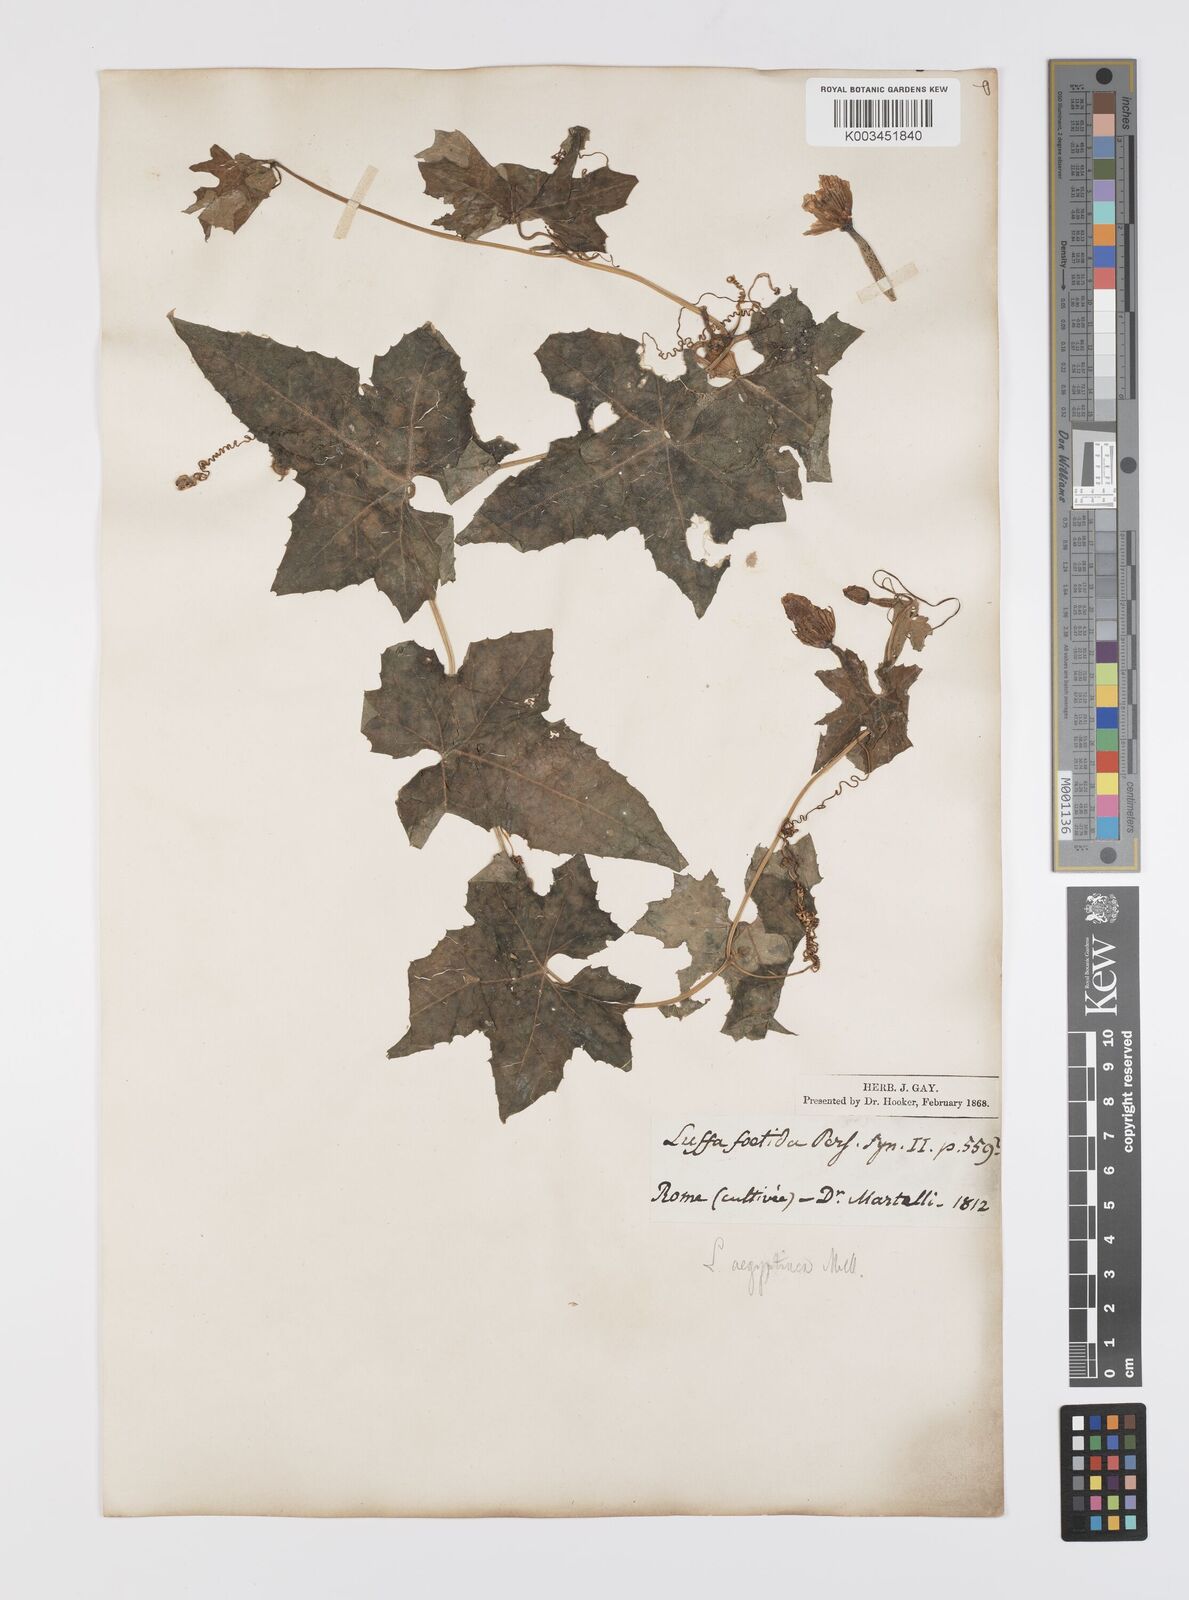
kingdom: Plantae
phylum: Tracheophyta
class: Magnoliopsida
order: Cucurbitales
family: Cucurbitaceae
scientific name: Cucurbitaceae
